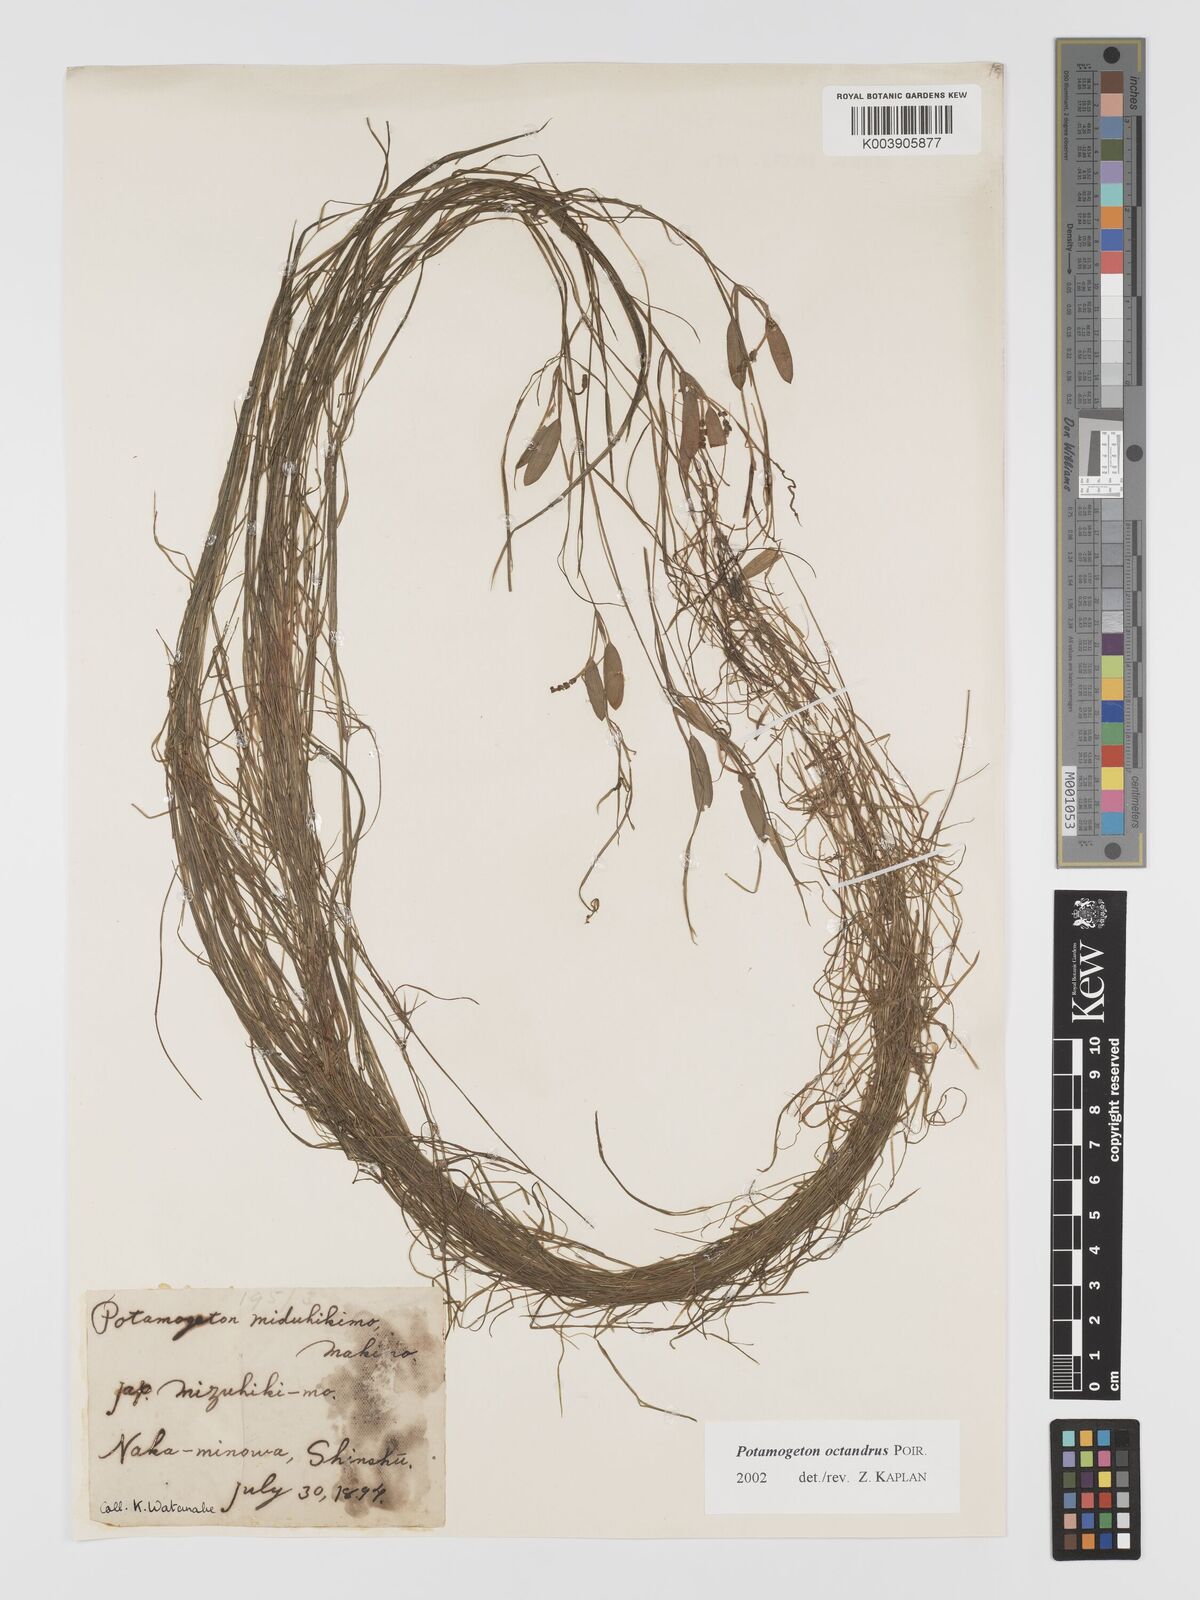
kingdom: Plantae
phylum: Tracheophyta
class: Liliopsida
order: Alismatales
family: Potamogetonaceae
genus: Potamogeton
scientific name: Potamogeton octandrus
